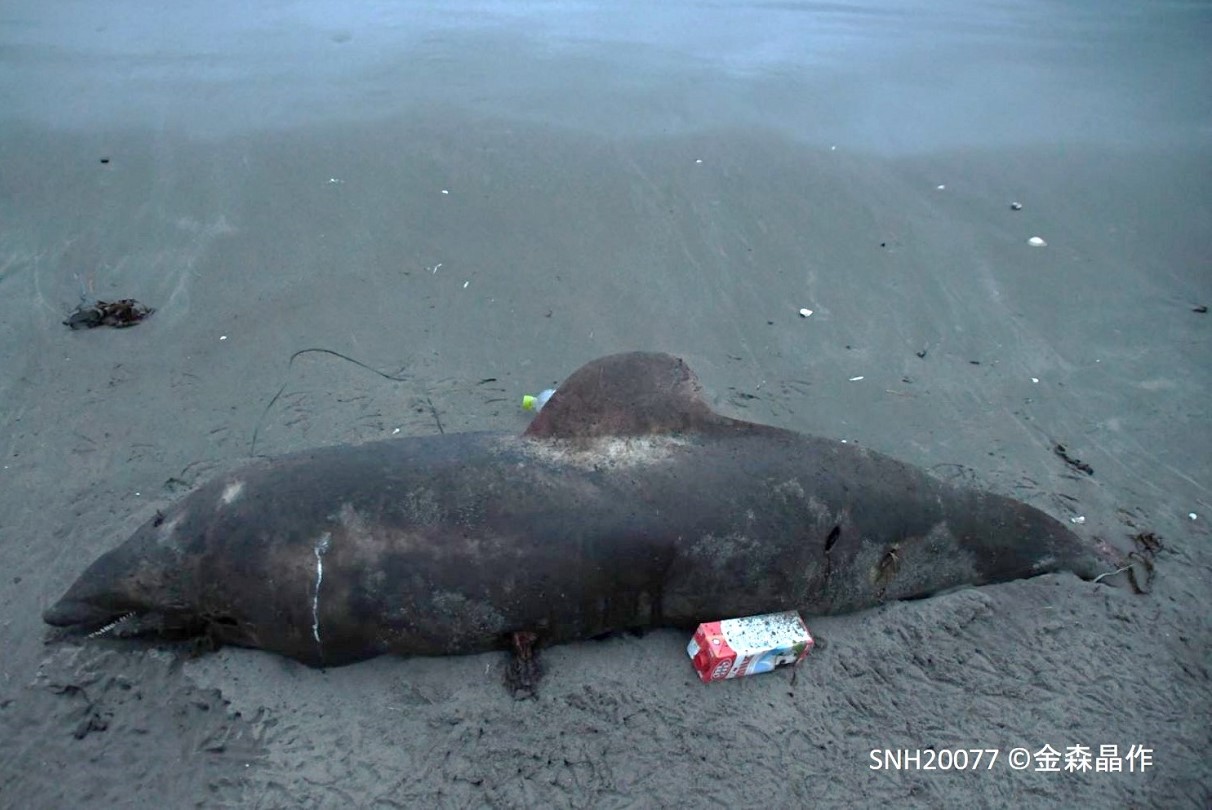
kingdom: Animalia
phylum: Chordata
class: Mammalia
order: Cetacea
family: Delphinidae
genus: Lagenorhynchus
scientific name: Lagenorhynchus obliquidens
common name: Pacific white-sided dolphin
